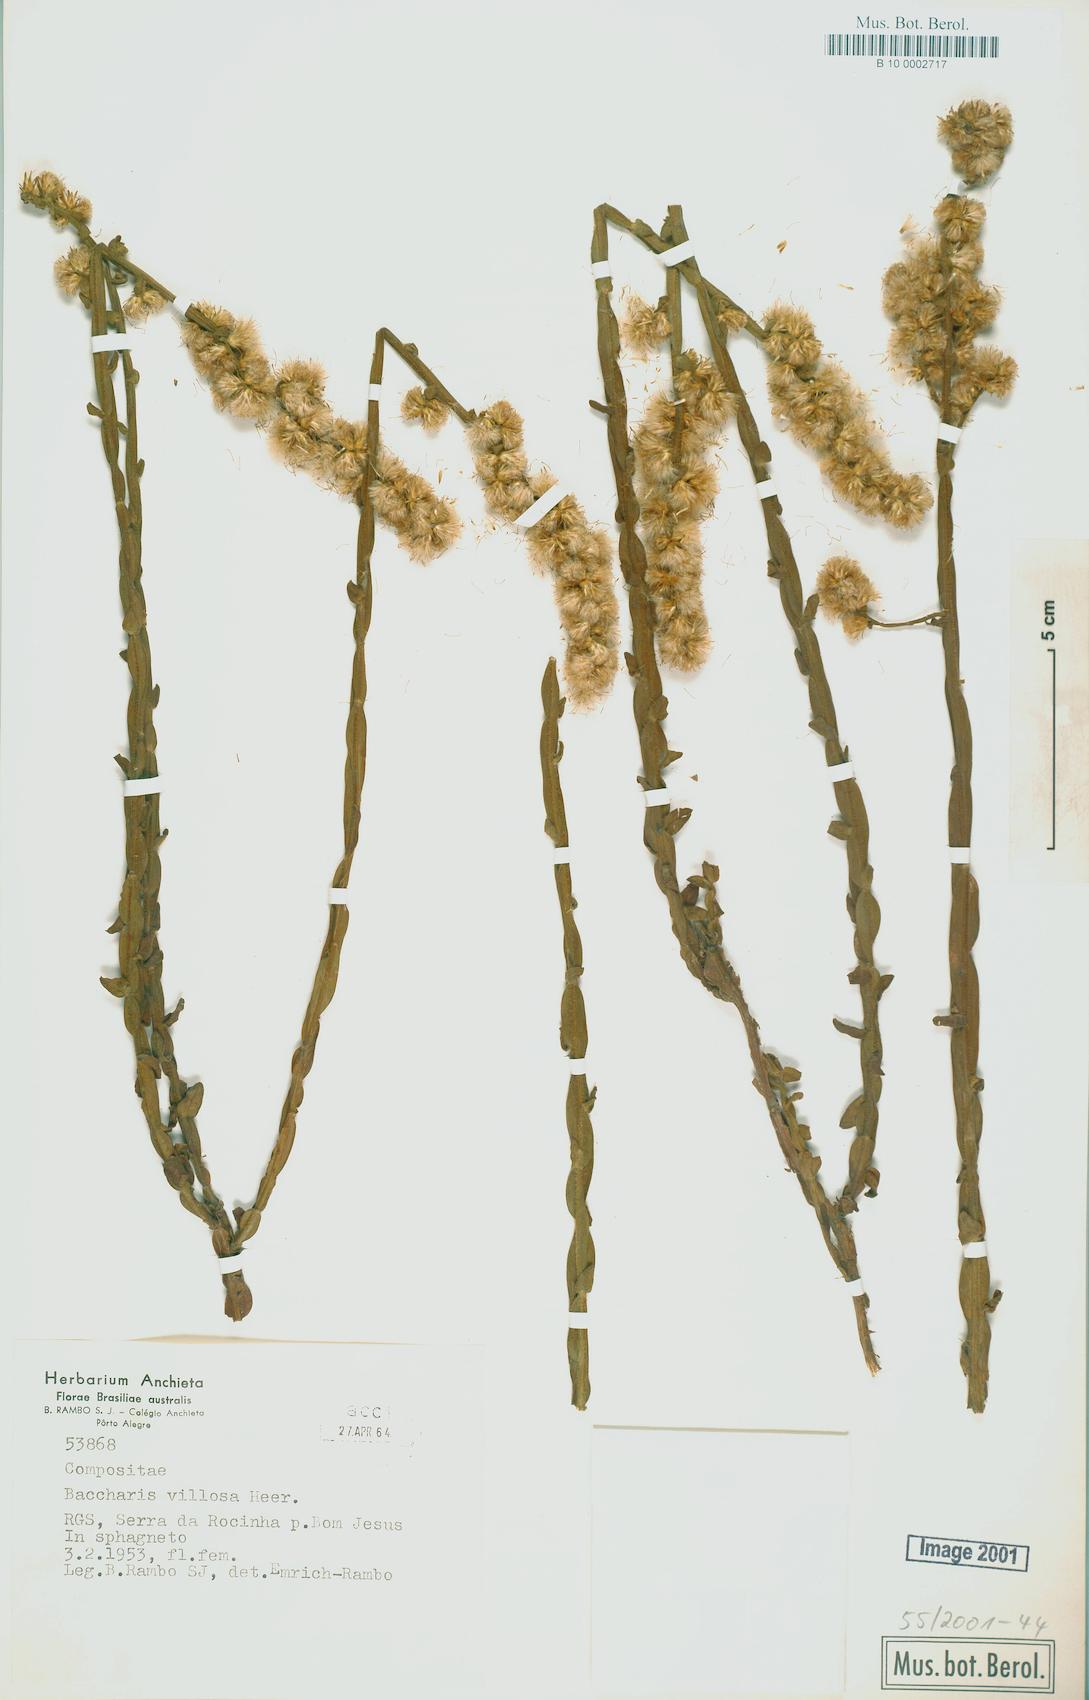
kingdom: Plantae
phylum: Tracheophyta
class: Magnoliopsida
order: Asterales
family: Asteraceae
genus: Baccharis
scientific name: Baccharis villosa
